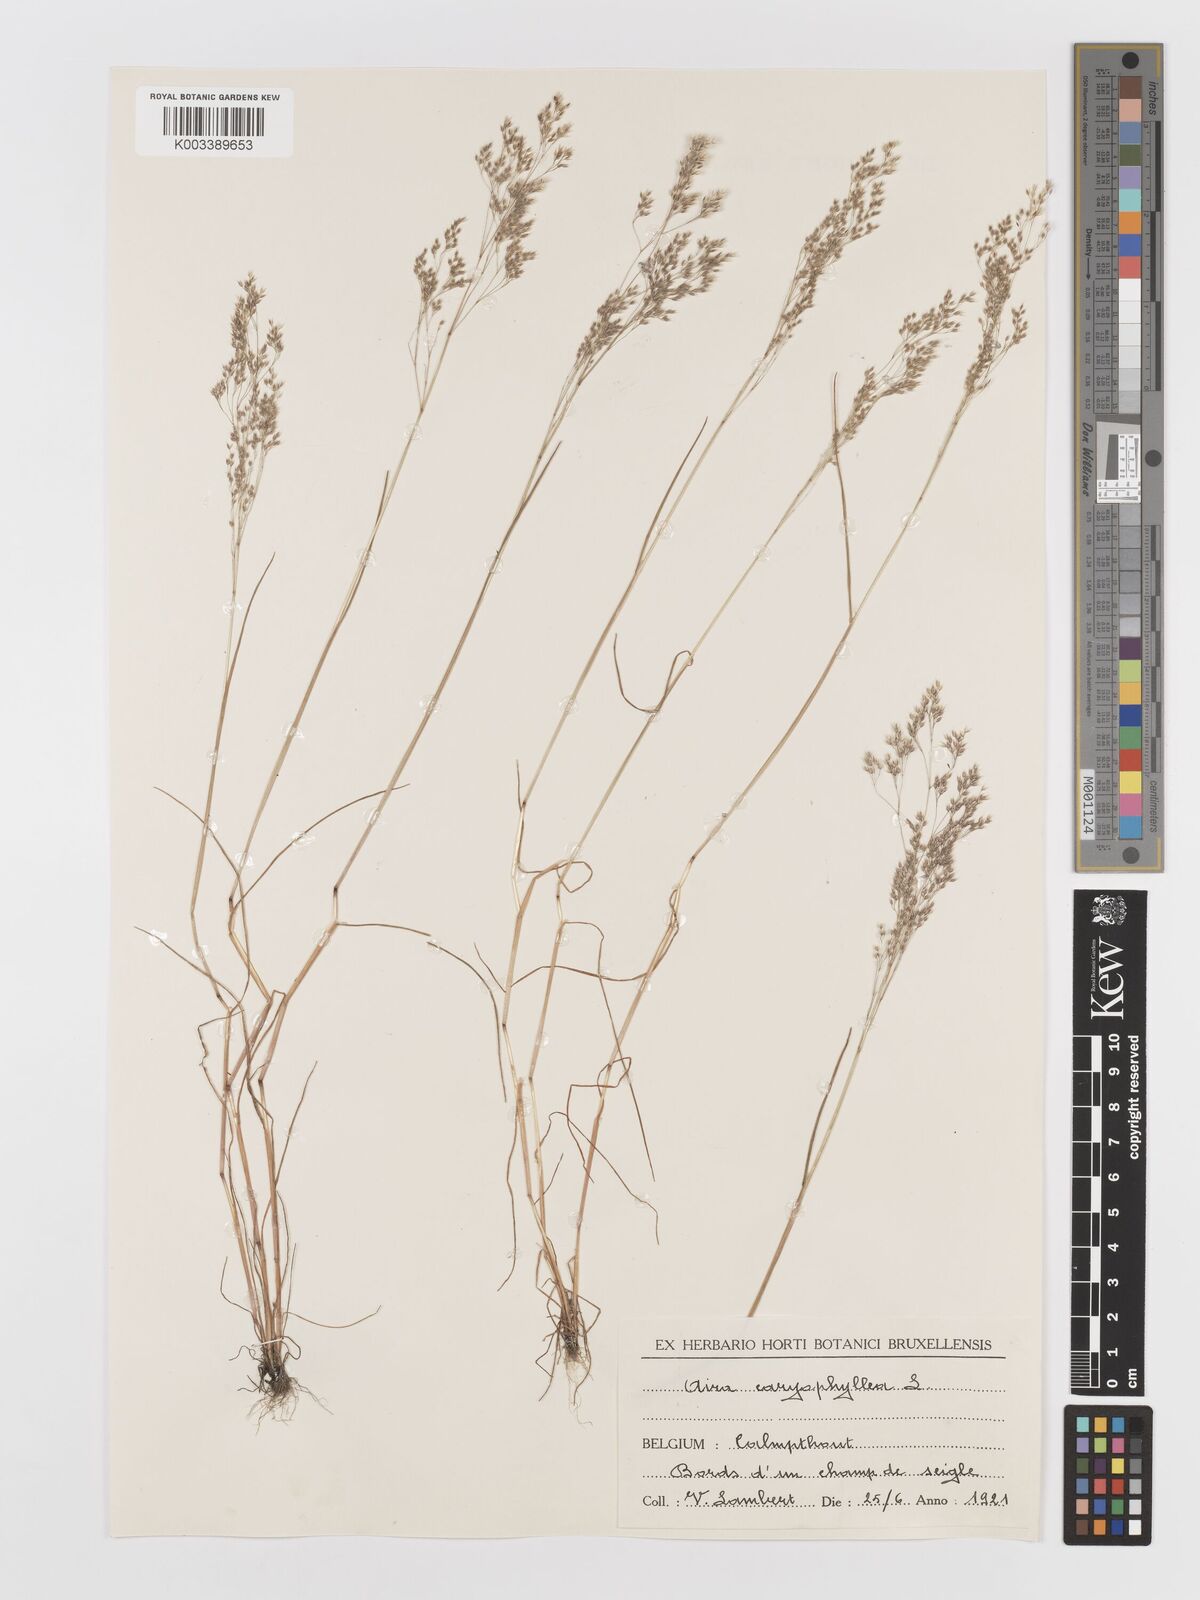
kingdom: Plantae
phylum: Tracheophyta
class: Liliopsida
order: Poales
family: Poaceae
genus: Aira
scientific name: Aira caryophyllea
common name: Silver hairgrass
